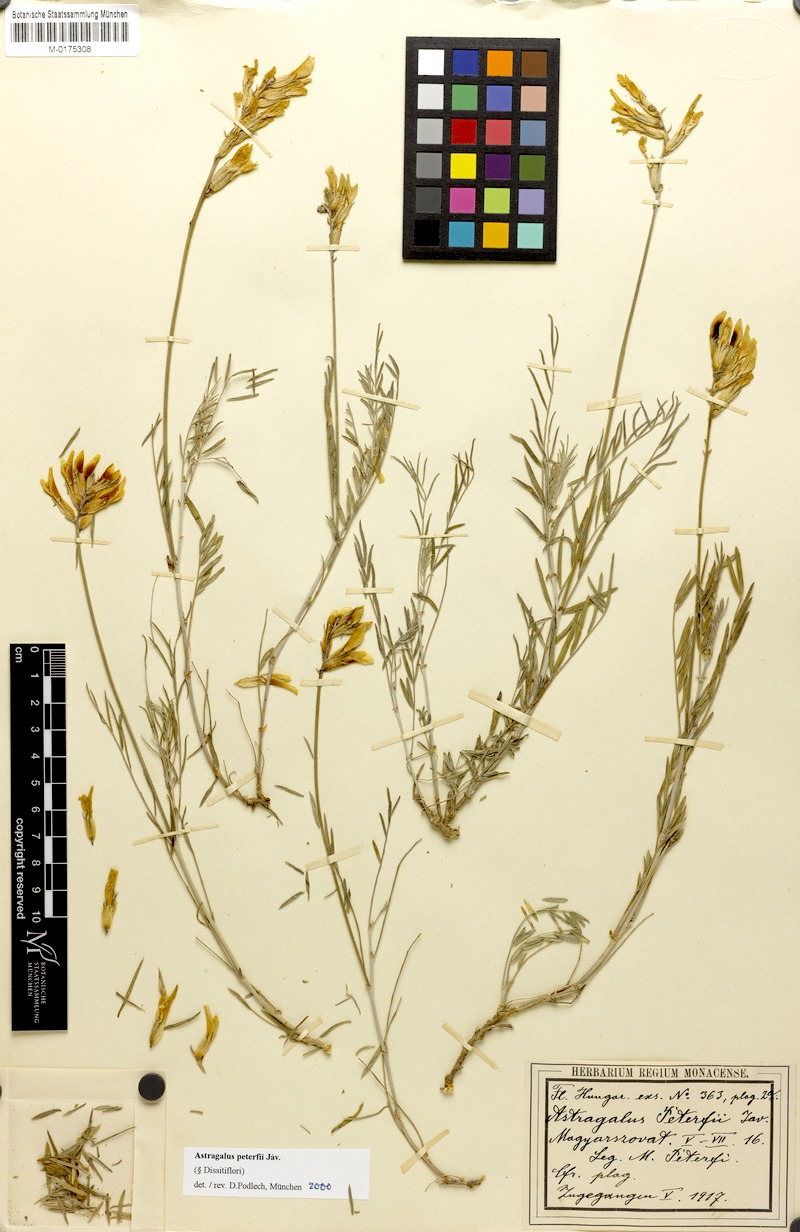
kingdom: Plantae
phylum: Tracheophyta
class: Magnoliopsida
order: Fabales
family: Fabaceae
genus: Astragalus
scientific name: Astragalus peterfii
